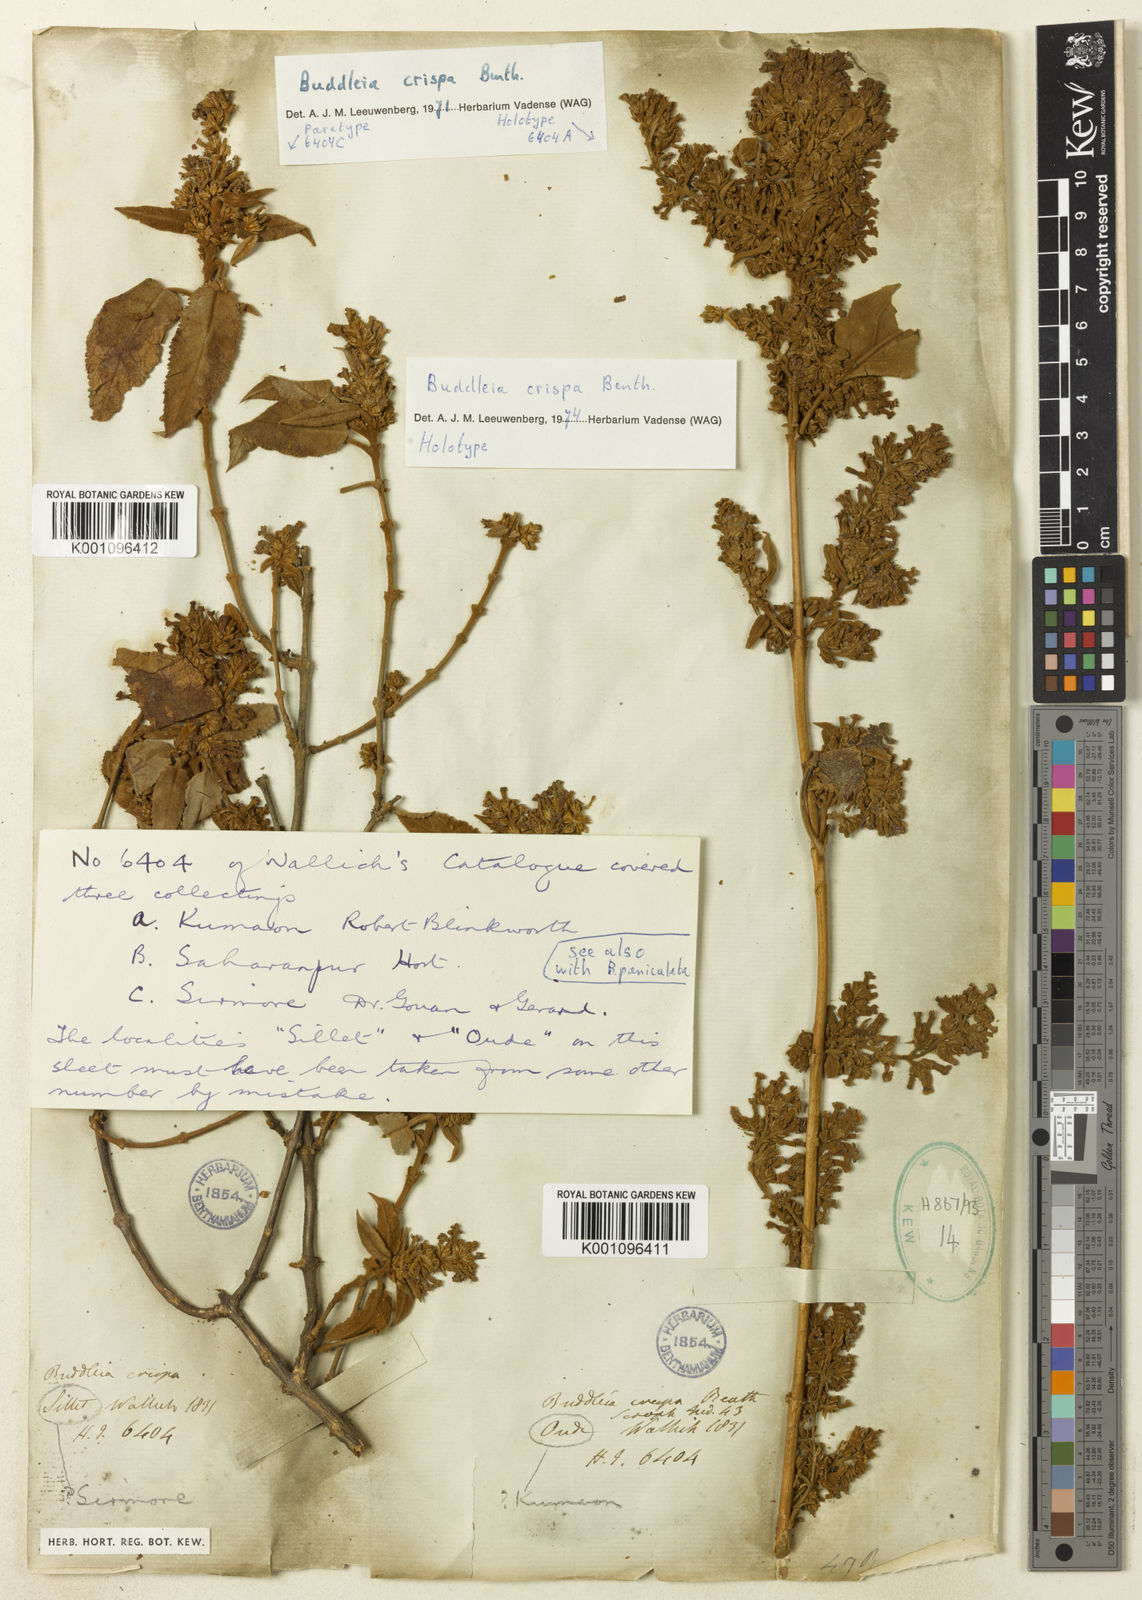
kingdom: Plantae
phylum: Tracheophyta
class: Magnoliopsida
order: Lamiales
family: Scrophulariaceae
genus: Buddleja
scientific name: Buddleja crispa
